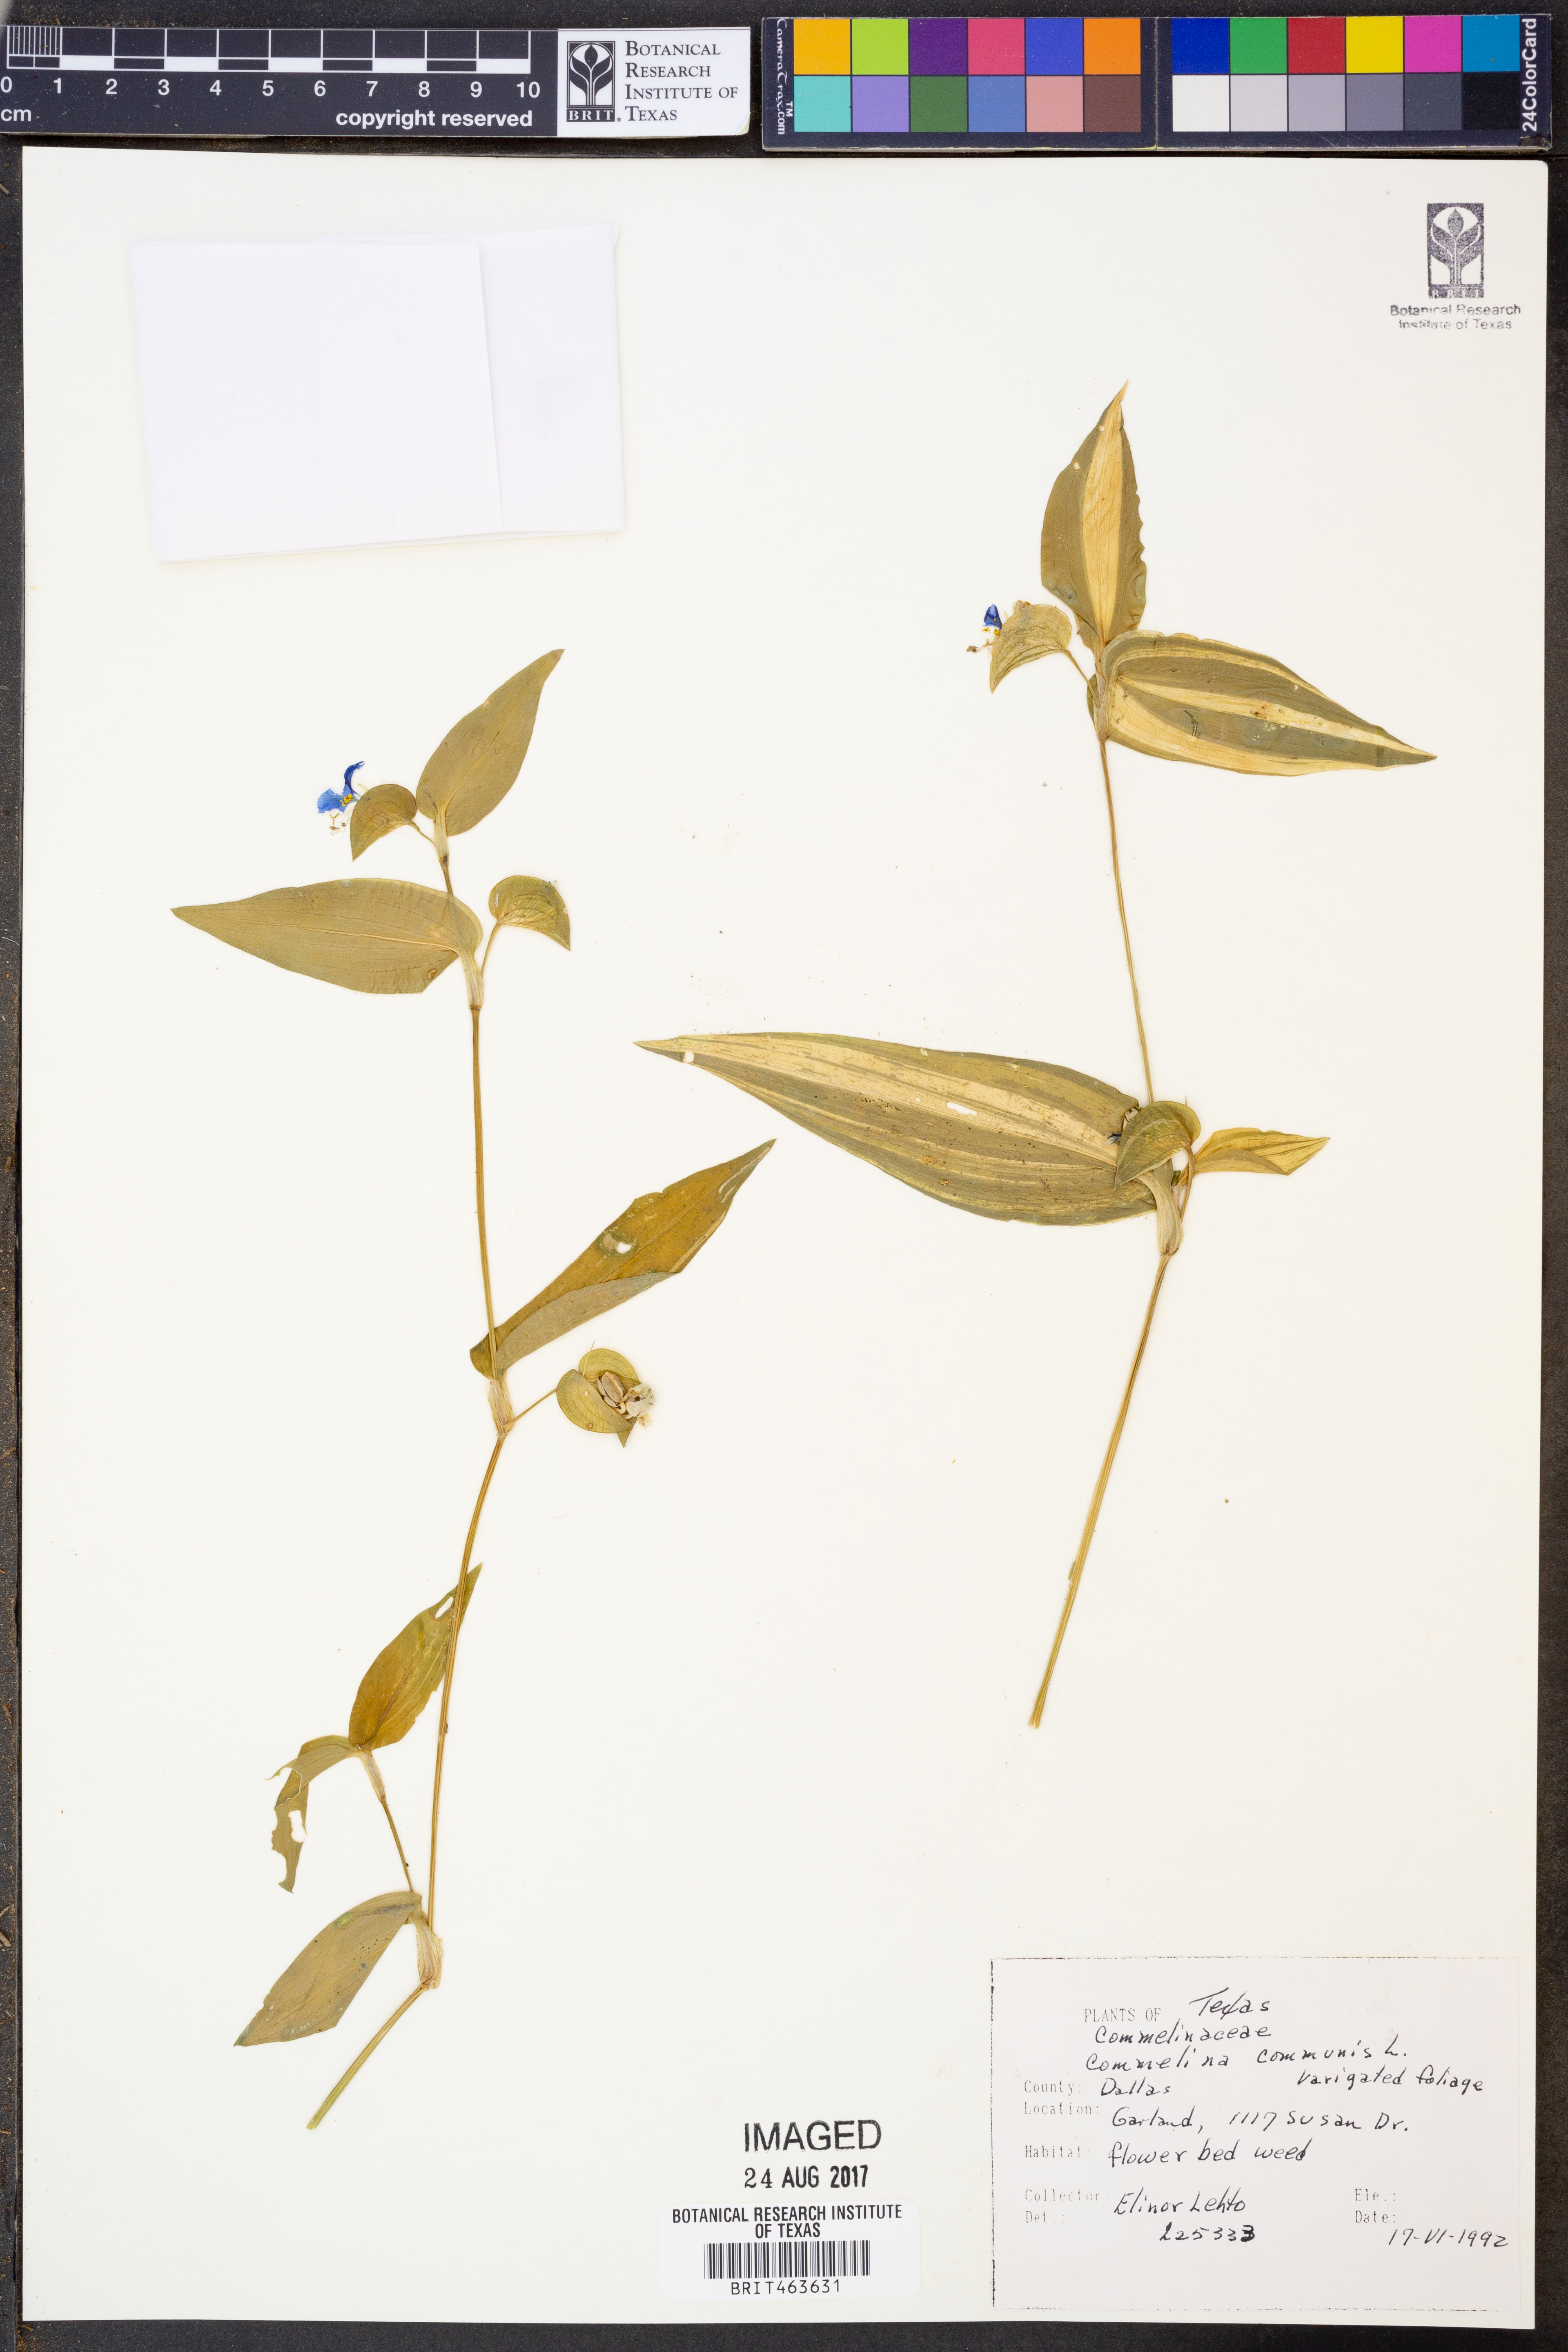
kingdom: Plantae
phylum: Tracheophyta
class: Liliopsida
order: Commelinales
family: Commelinaceae
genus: Commelina
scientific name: Commelina communis
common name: Asiatic dayflower
